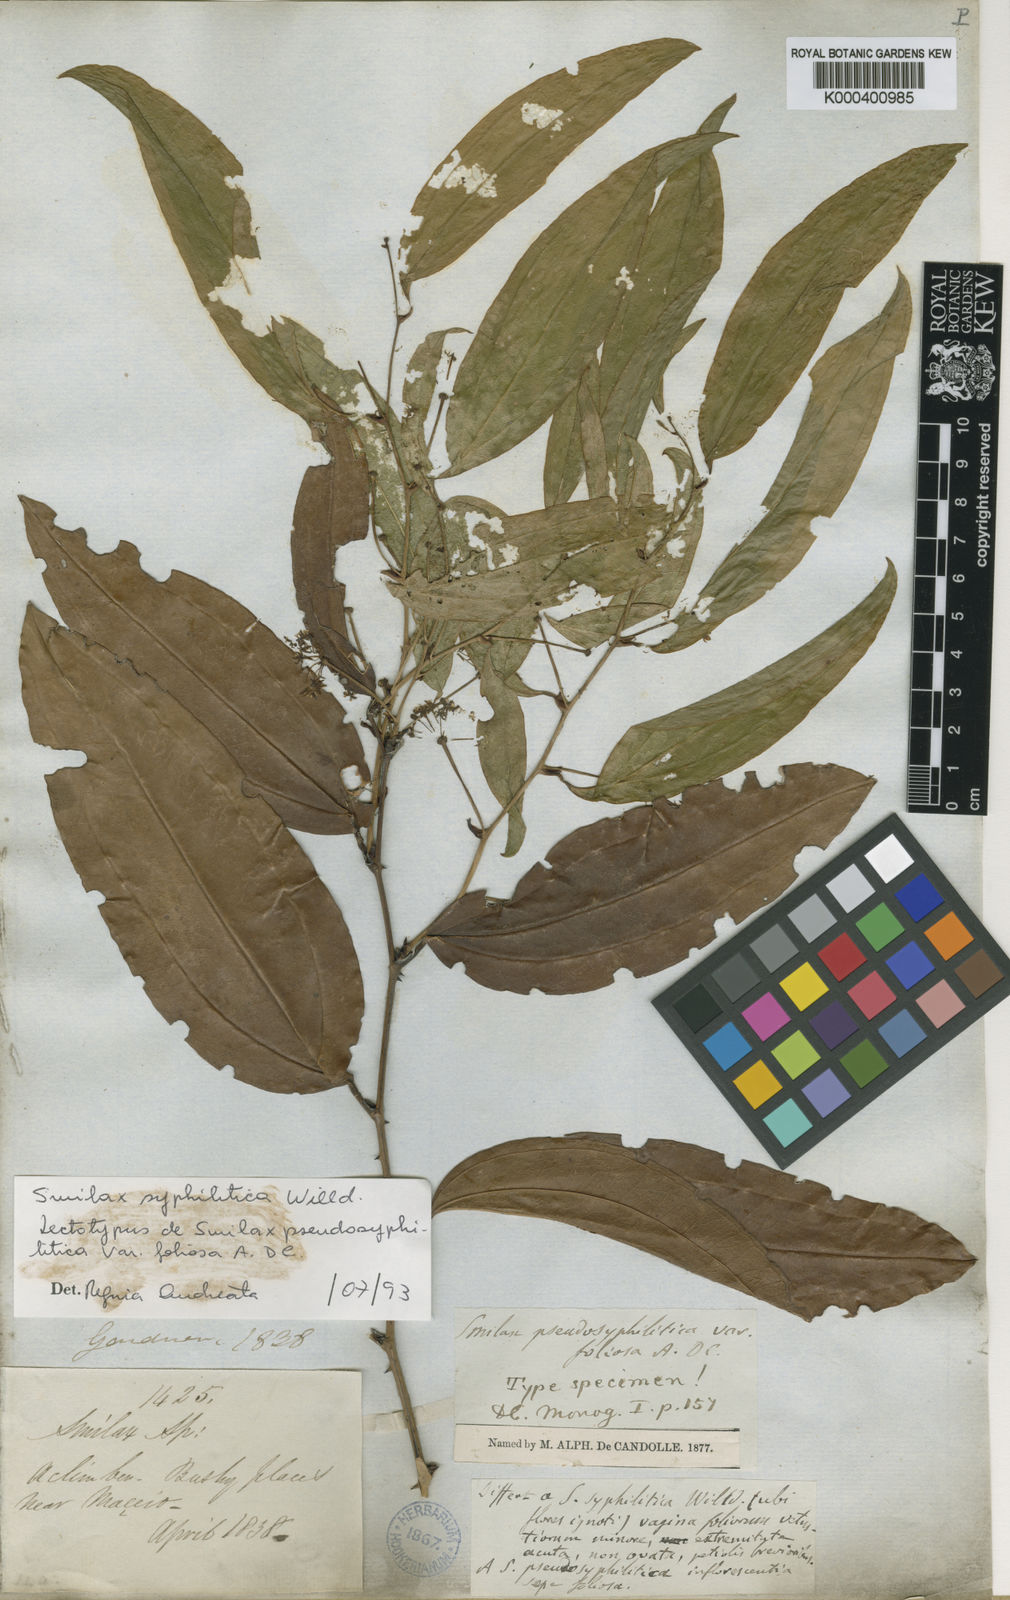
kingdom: Plantae
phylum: Tracheophyta
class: Liliopsida
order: Liliales
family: Smilacaceae
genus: Smilax
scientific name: Smilax siphilitica
